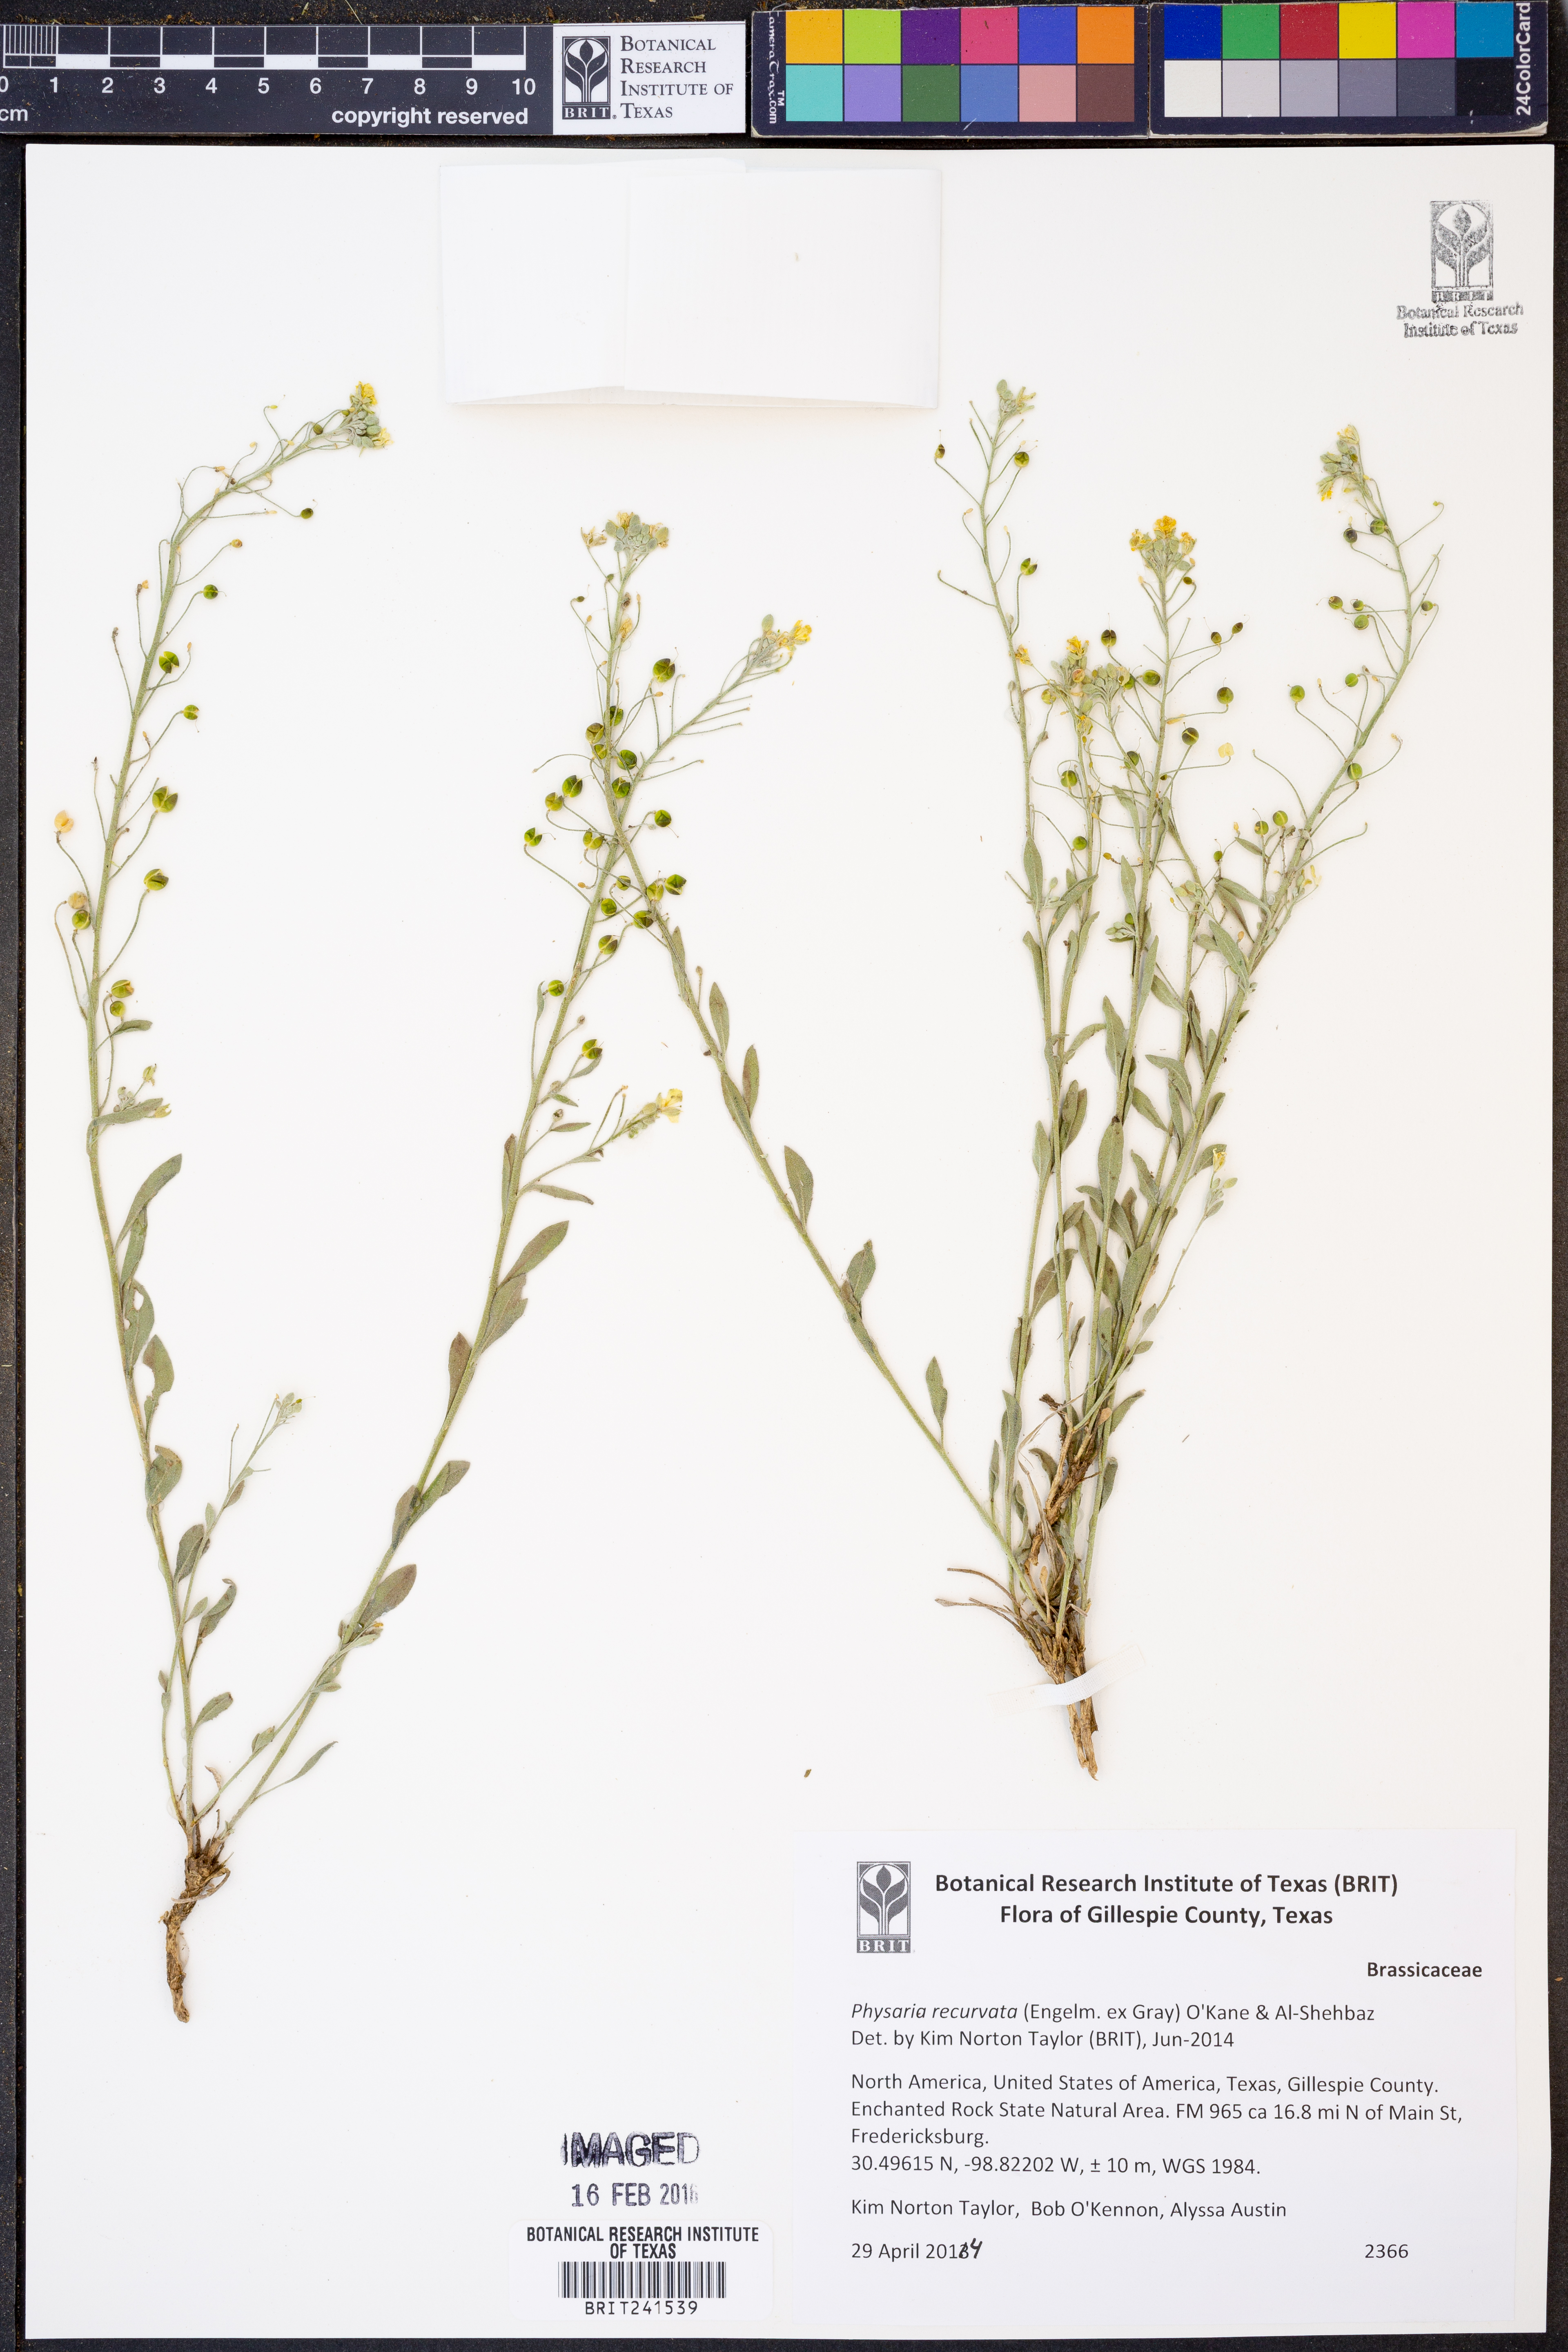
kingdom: Plantae
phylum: Tracheophyta
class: Magnoliopsida
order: Brassicales
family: Brassicaceae
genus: Physaria
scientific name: Physaria recurvata
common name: Gaslight bladderpod
